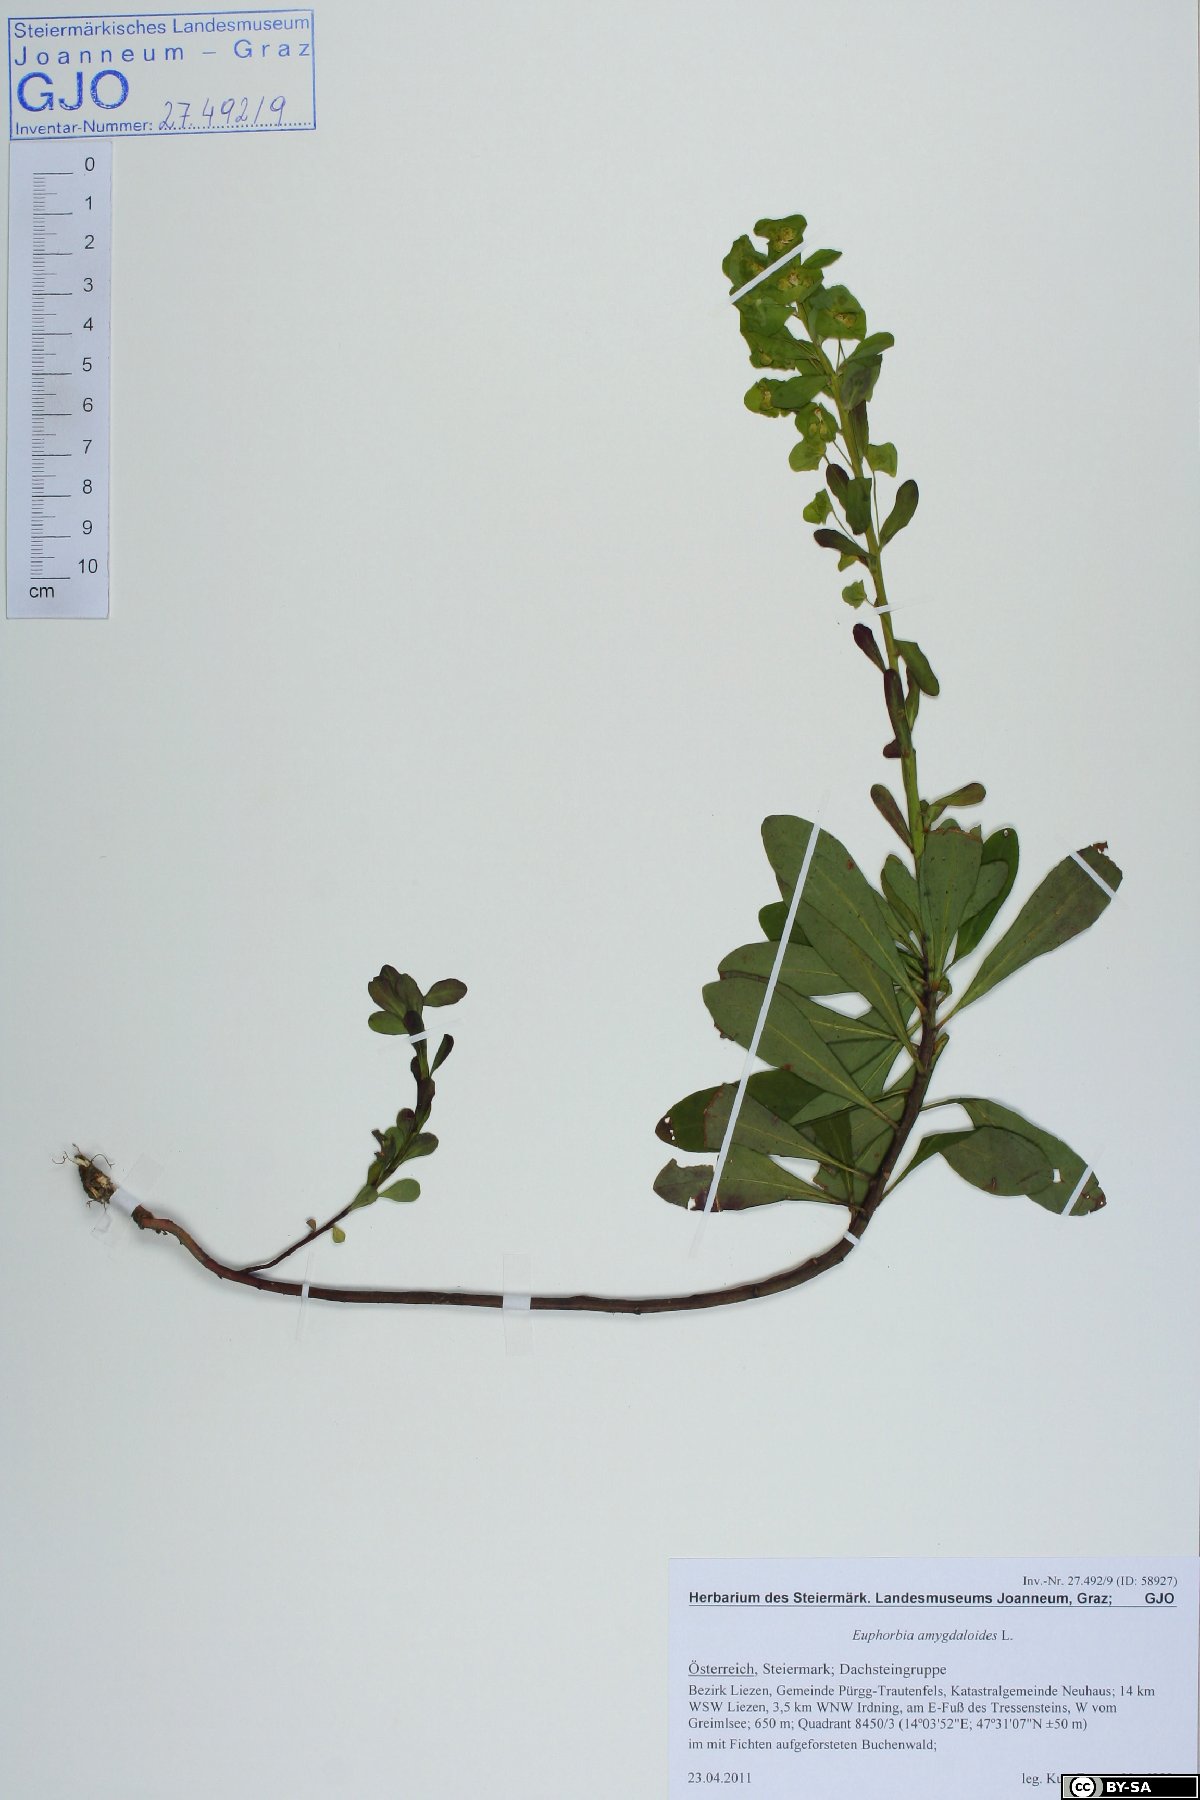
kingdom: Plantae
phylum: Tracheophyta
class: Magnoliopsida
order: Malpighiales
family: Euphorbiaceae
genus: Euphorbia
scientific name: Euphorbia amygdaloides
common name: Wood spurge
